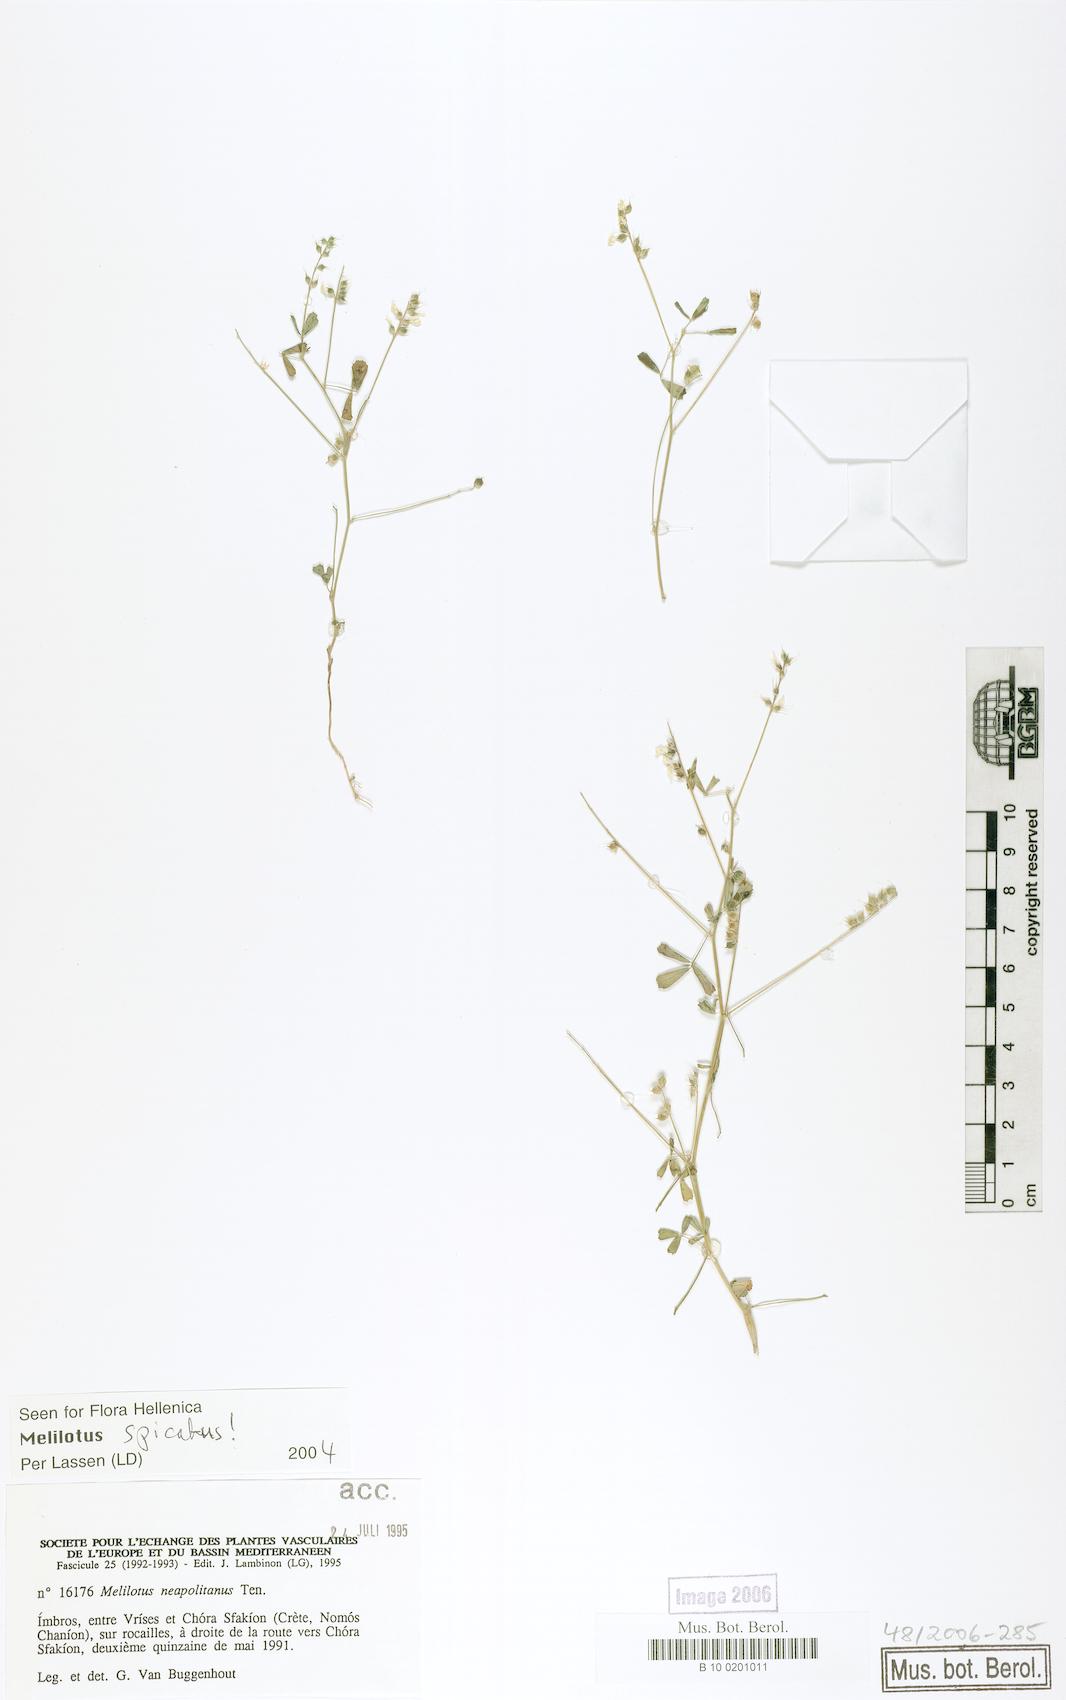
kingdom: Plantae
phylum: Tracheophyta
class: Magnoliopsida
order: Fabales
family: Fabaceae
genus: Melilotus
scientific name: Melilotus neapolitanus
